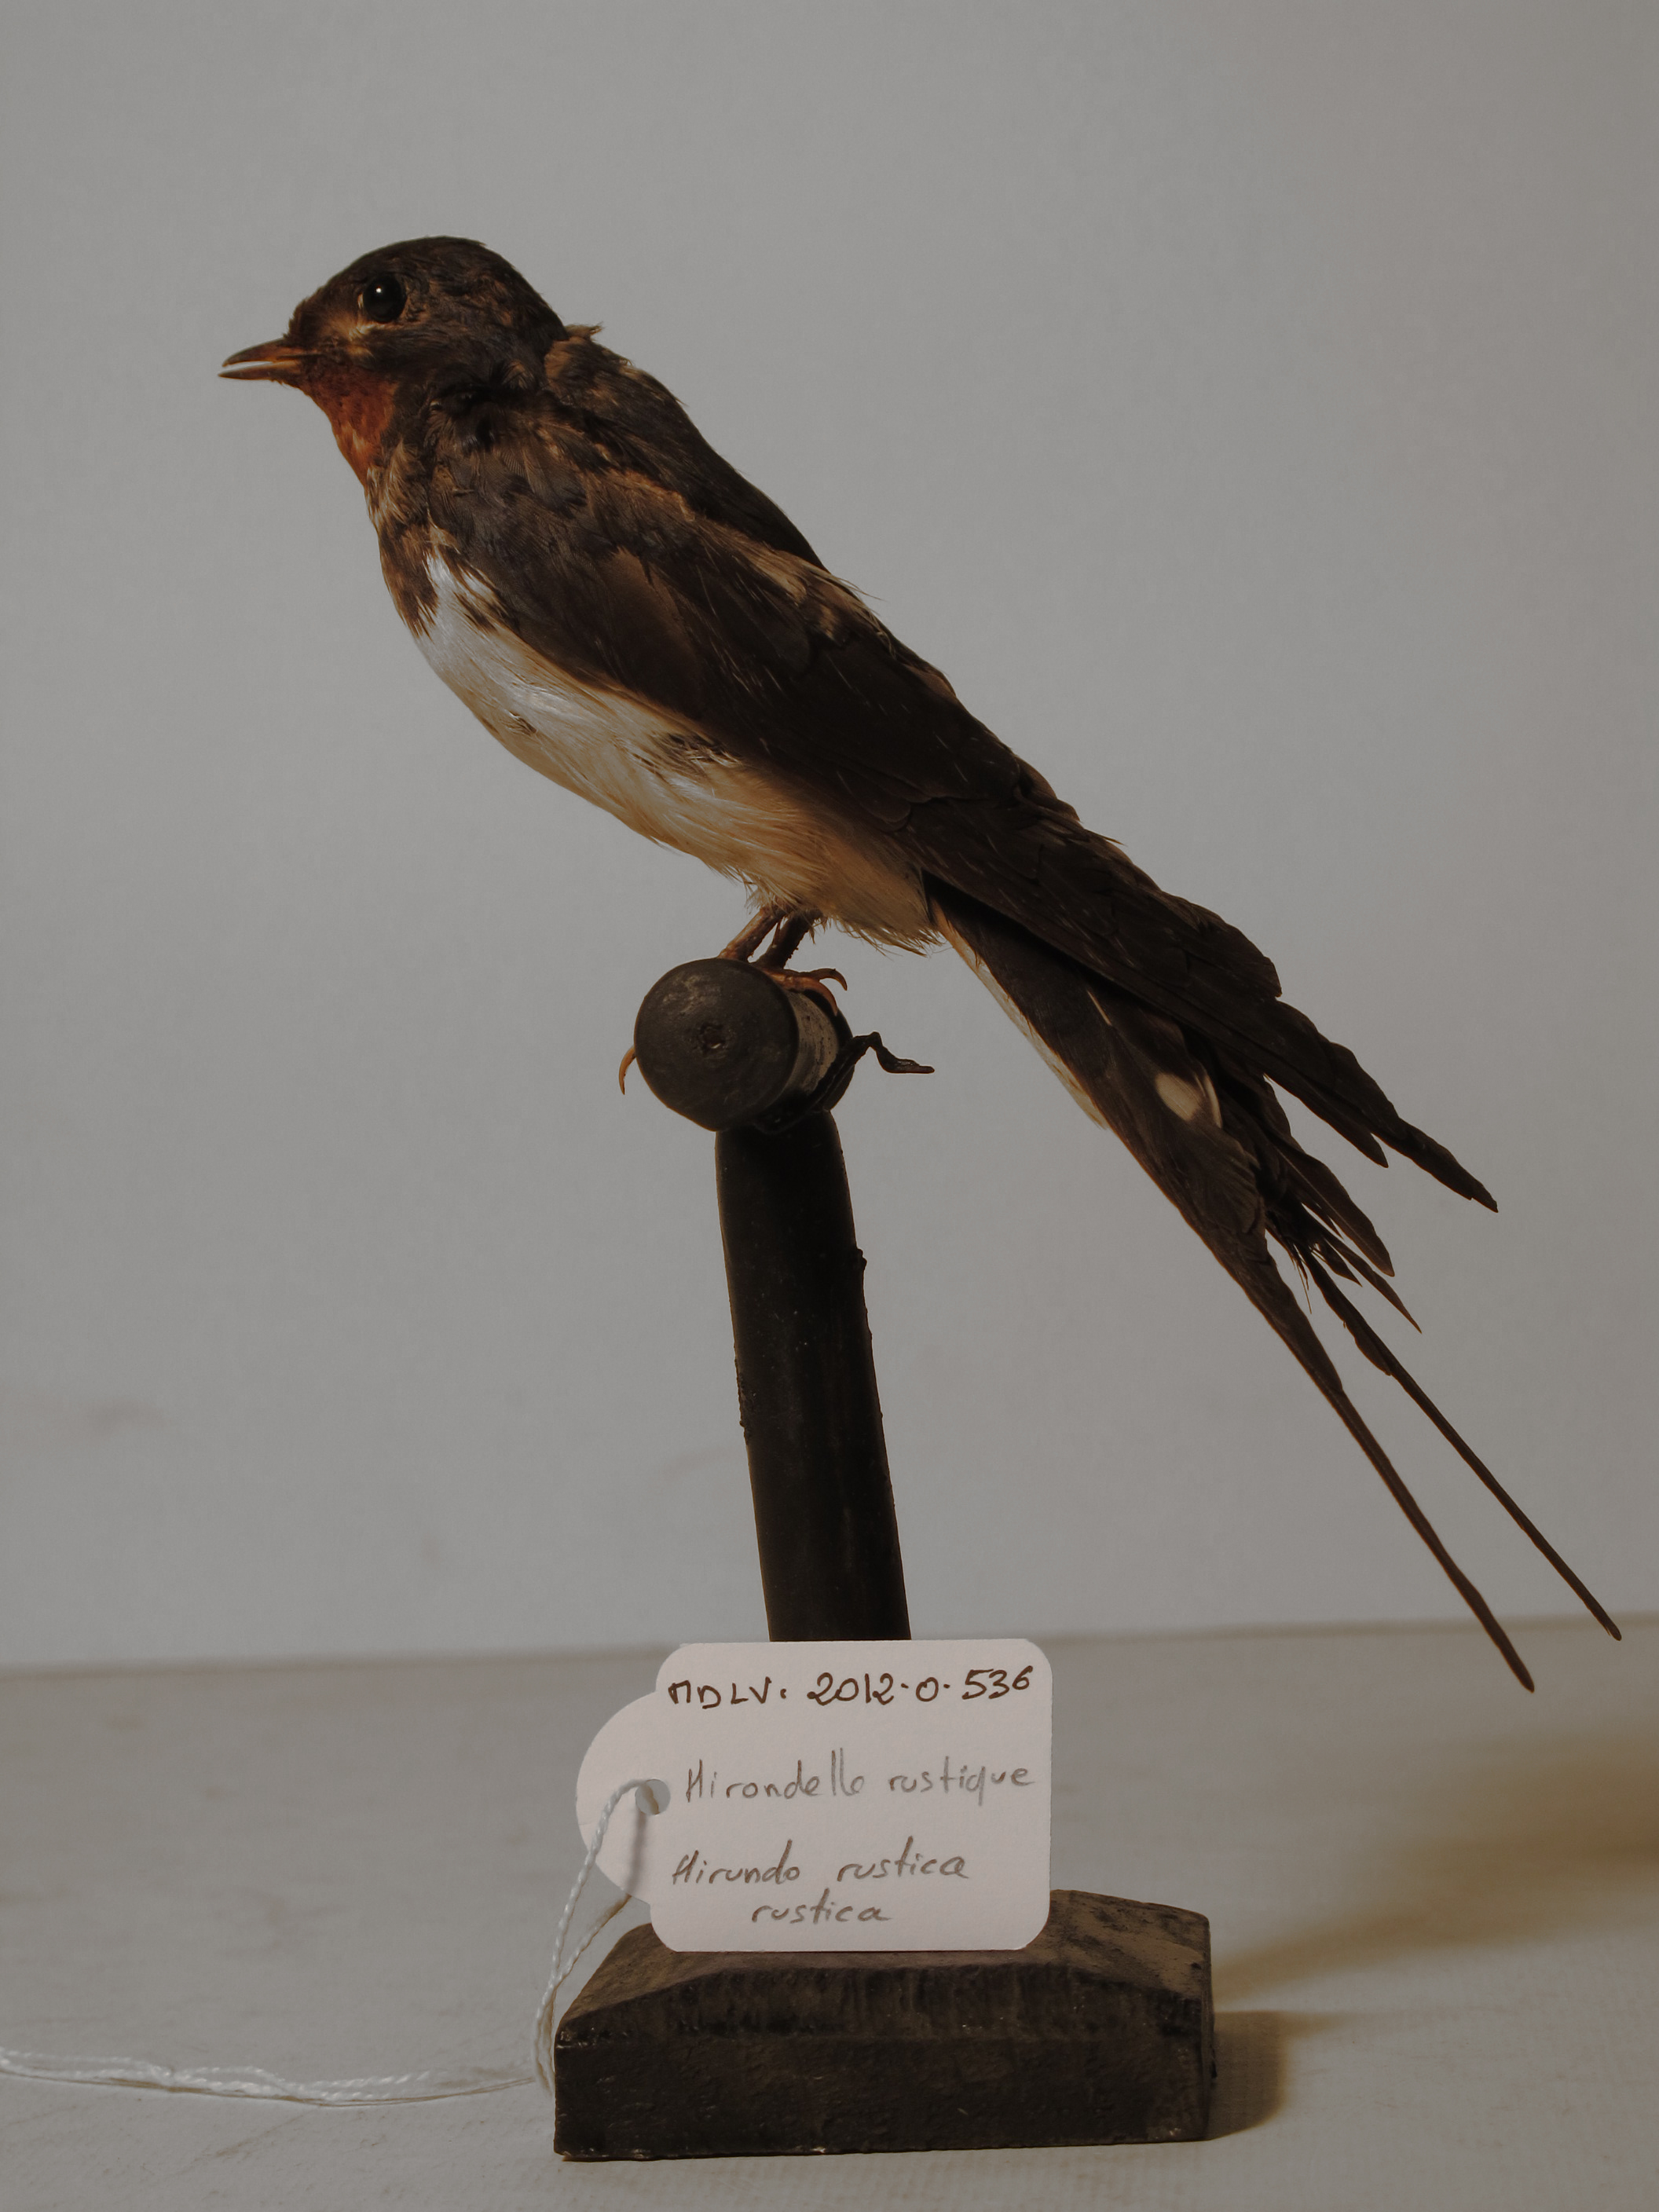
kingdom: Animalia
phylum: Chordata
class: Aves
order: Passeriformes
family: Hirundinidae
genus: Hirundo
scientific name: Hirundo rustica
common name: Barn Swallow
